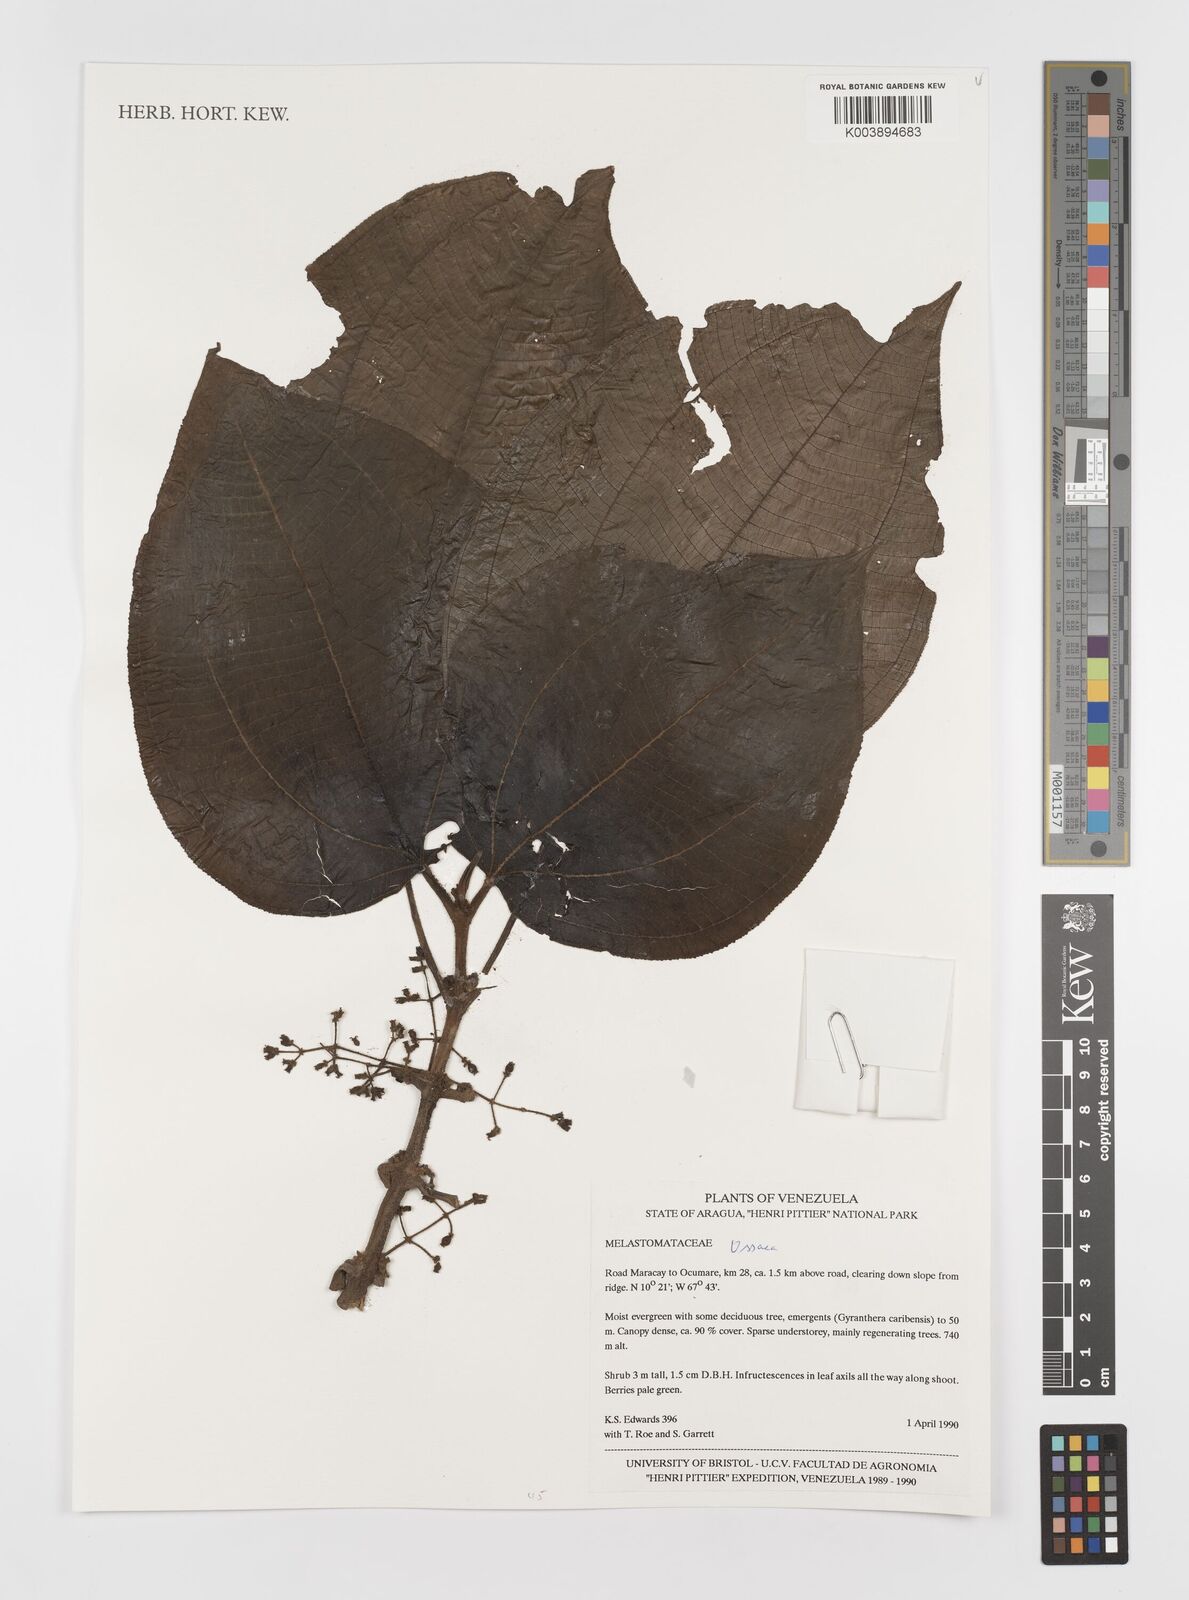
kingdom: Plantae
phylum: Tracheophyta
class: Magnoliopsida
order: Myrtales
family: Melastomataceae
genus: Ossaea
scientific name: Ossaea
